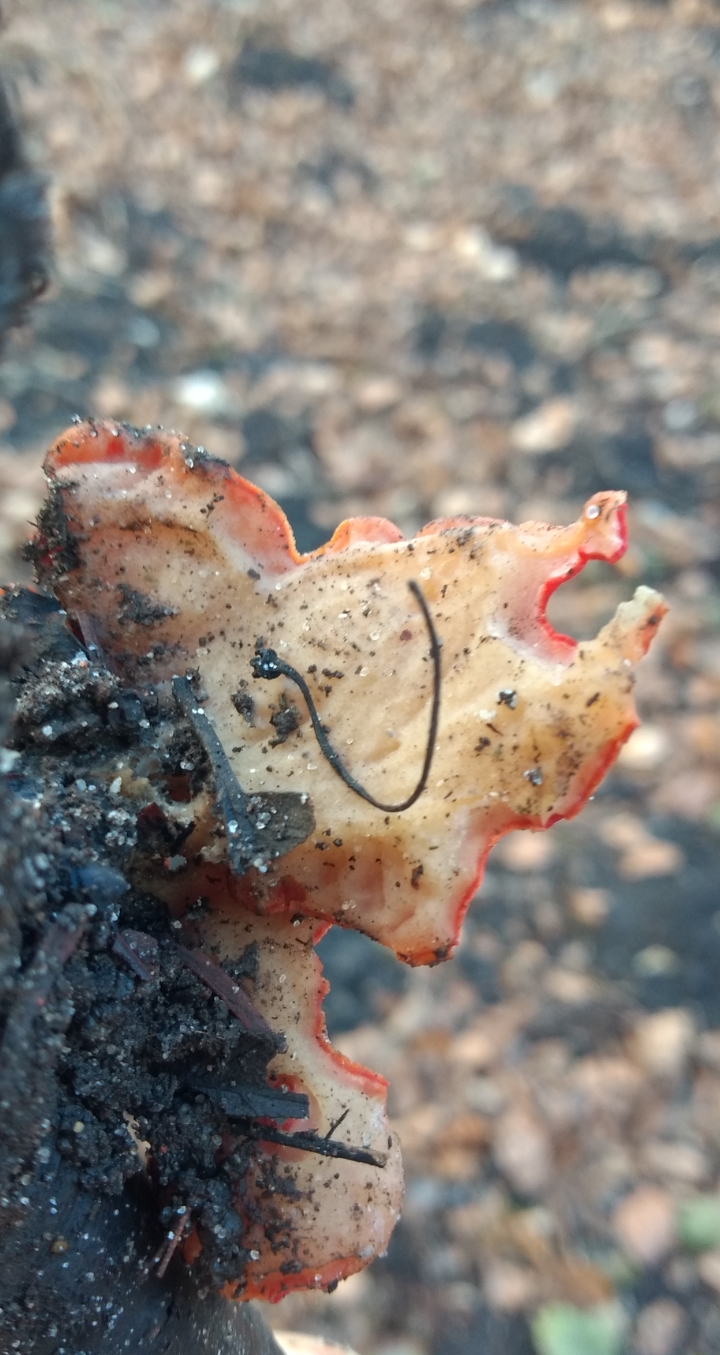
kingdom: Fungi
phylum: Ascomycota
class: Pezizomycetes
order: Pezizales
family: Sarcoscyphaceae
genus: Sarcoscypha
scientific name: Sarcoscypha austriaca
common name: krølhåret pragtbæger
